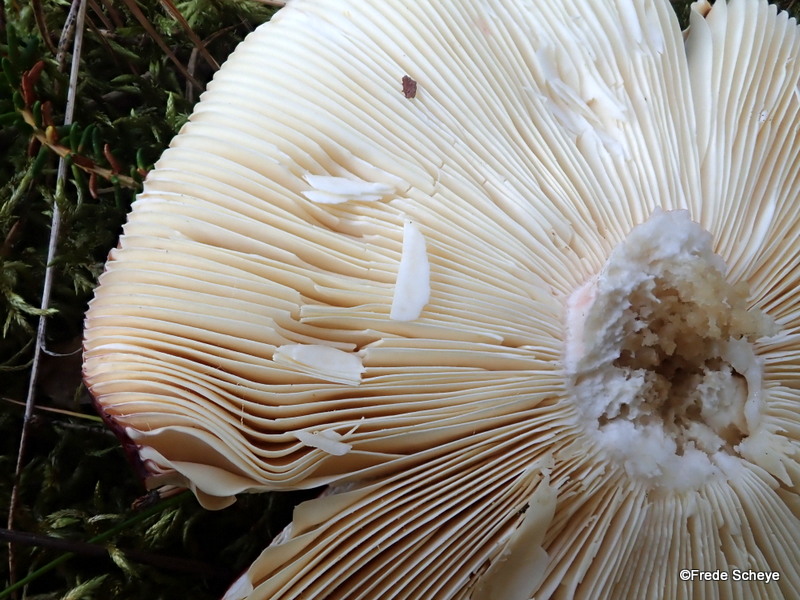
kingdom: Fungi
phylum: Basidiomycota
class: Agaricomycetes
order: Russulales
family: Russulaceae
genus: Russula
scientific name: Russula paludosa
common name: prægtig skørhat
